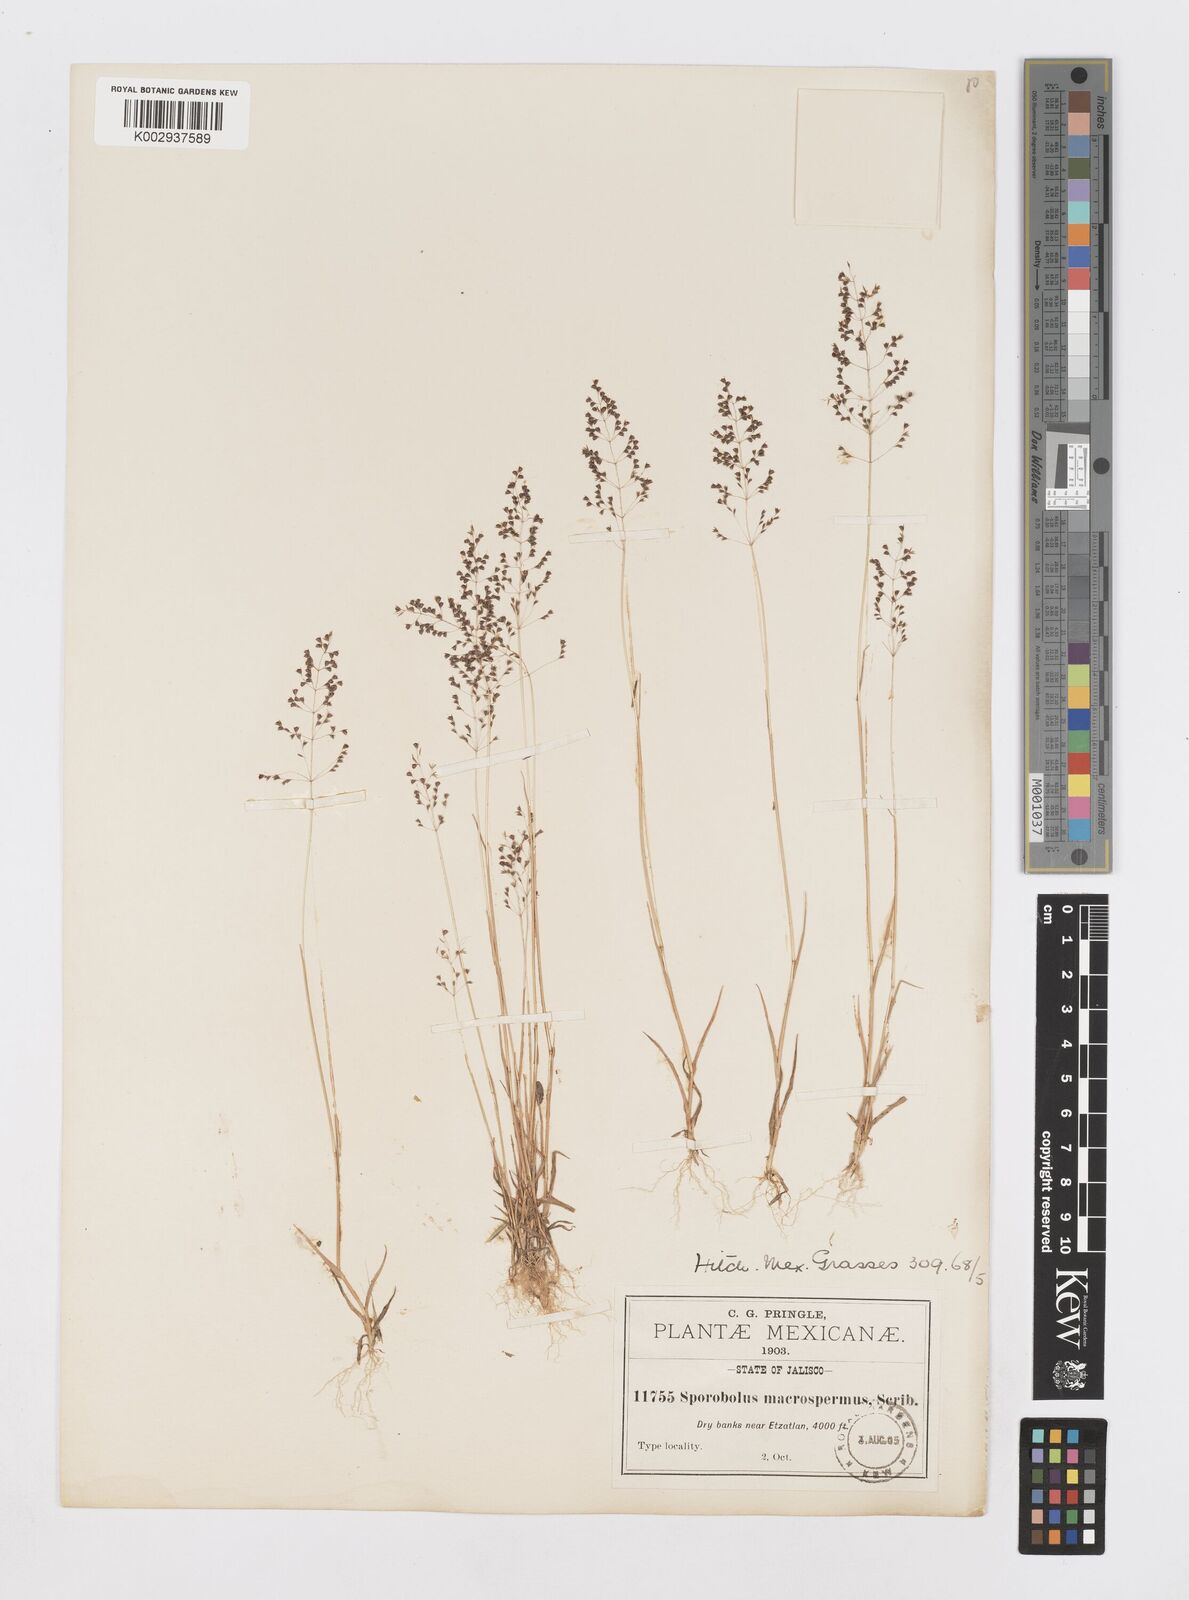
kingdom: Plantae
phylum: Tracheophyta
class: Liliopsida
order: Poales
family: Poaceae
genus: Sporobolus
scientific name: Sporobolus macrospermus
